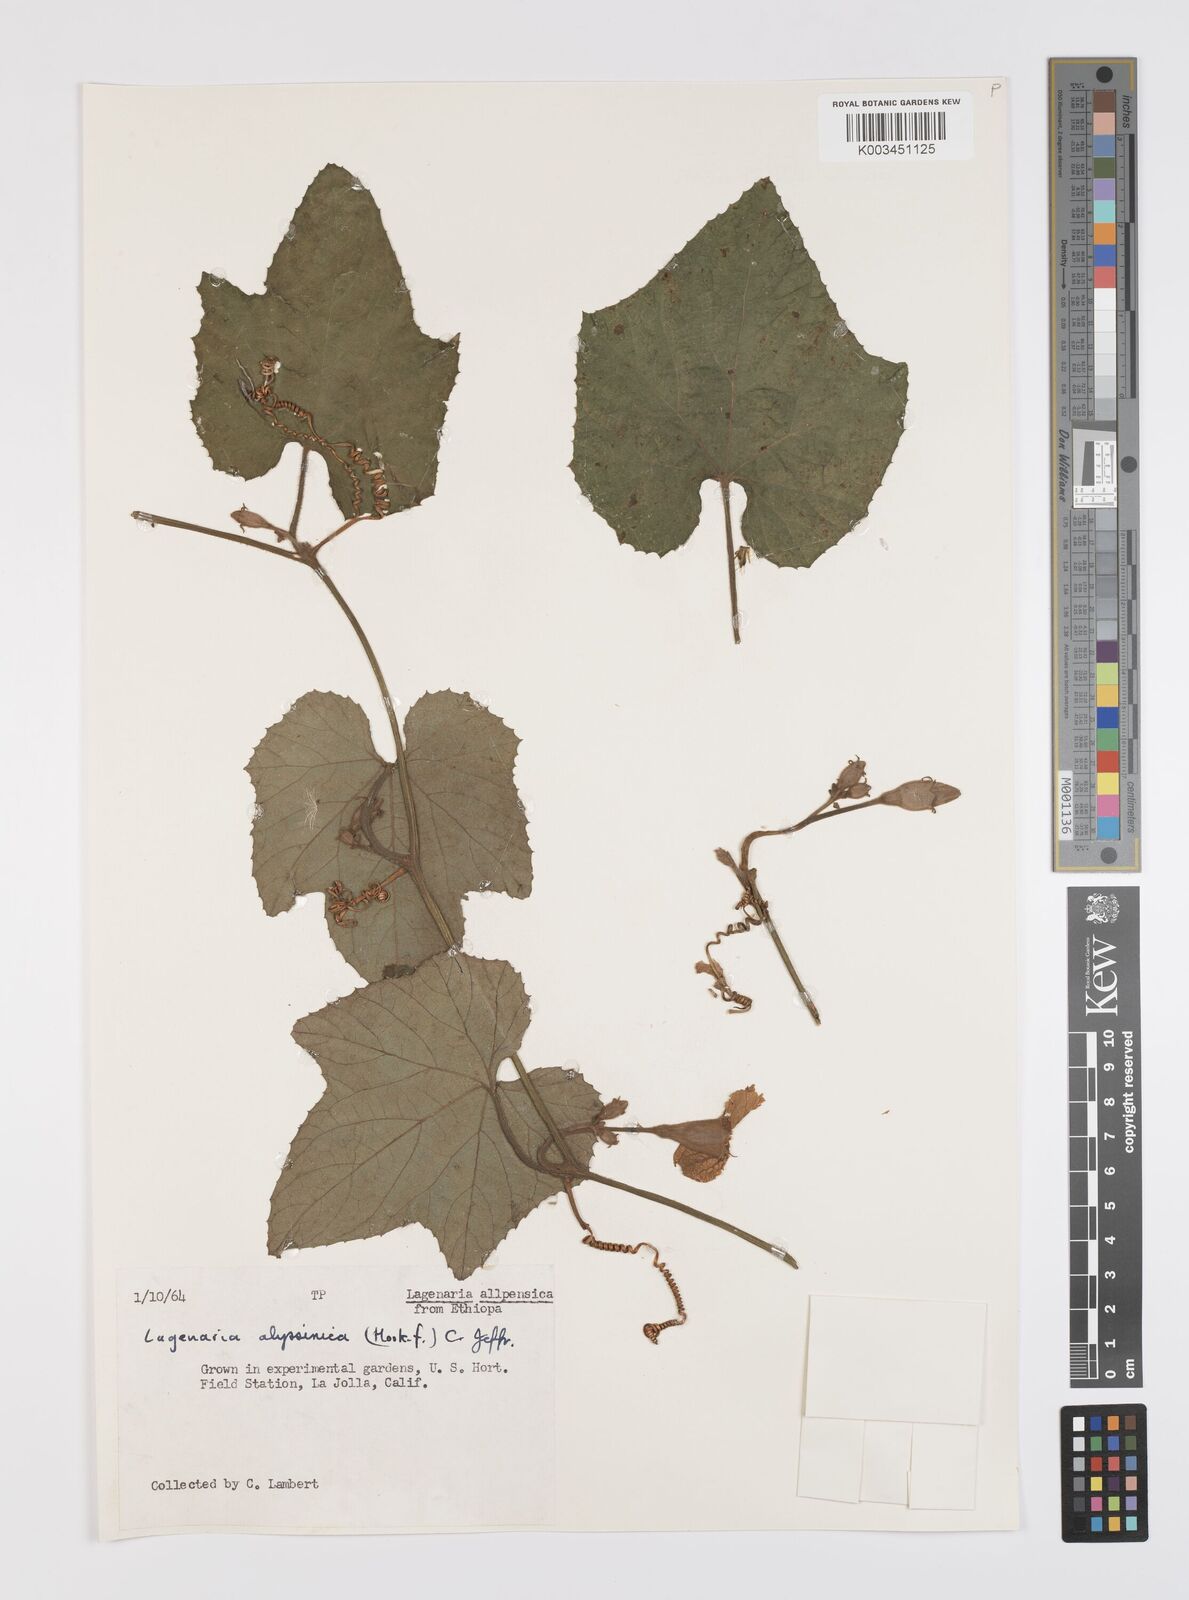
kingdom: Plantae
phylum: Tracheophyta
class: Magnoliopsida
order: Cucurbitales
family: Cucurbitaceae
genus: Lagenaria
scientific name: Lagenaria abyssinica
